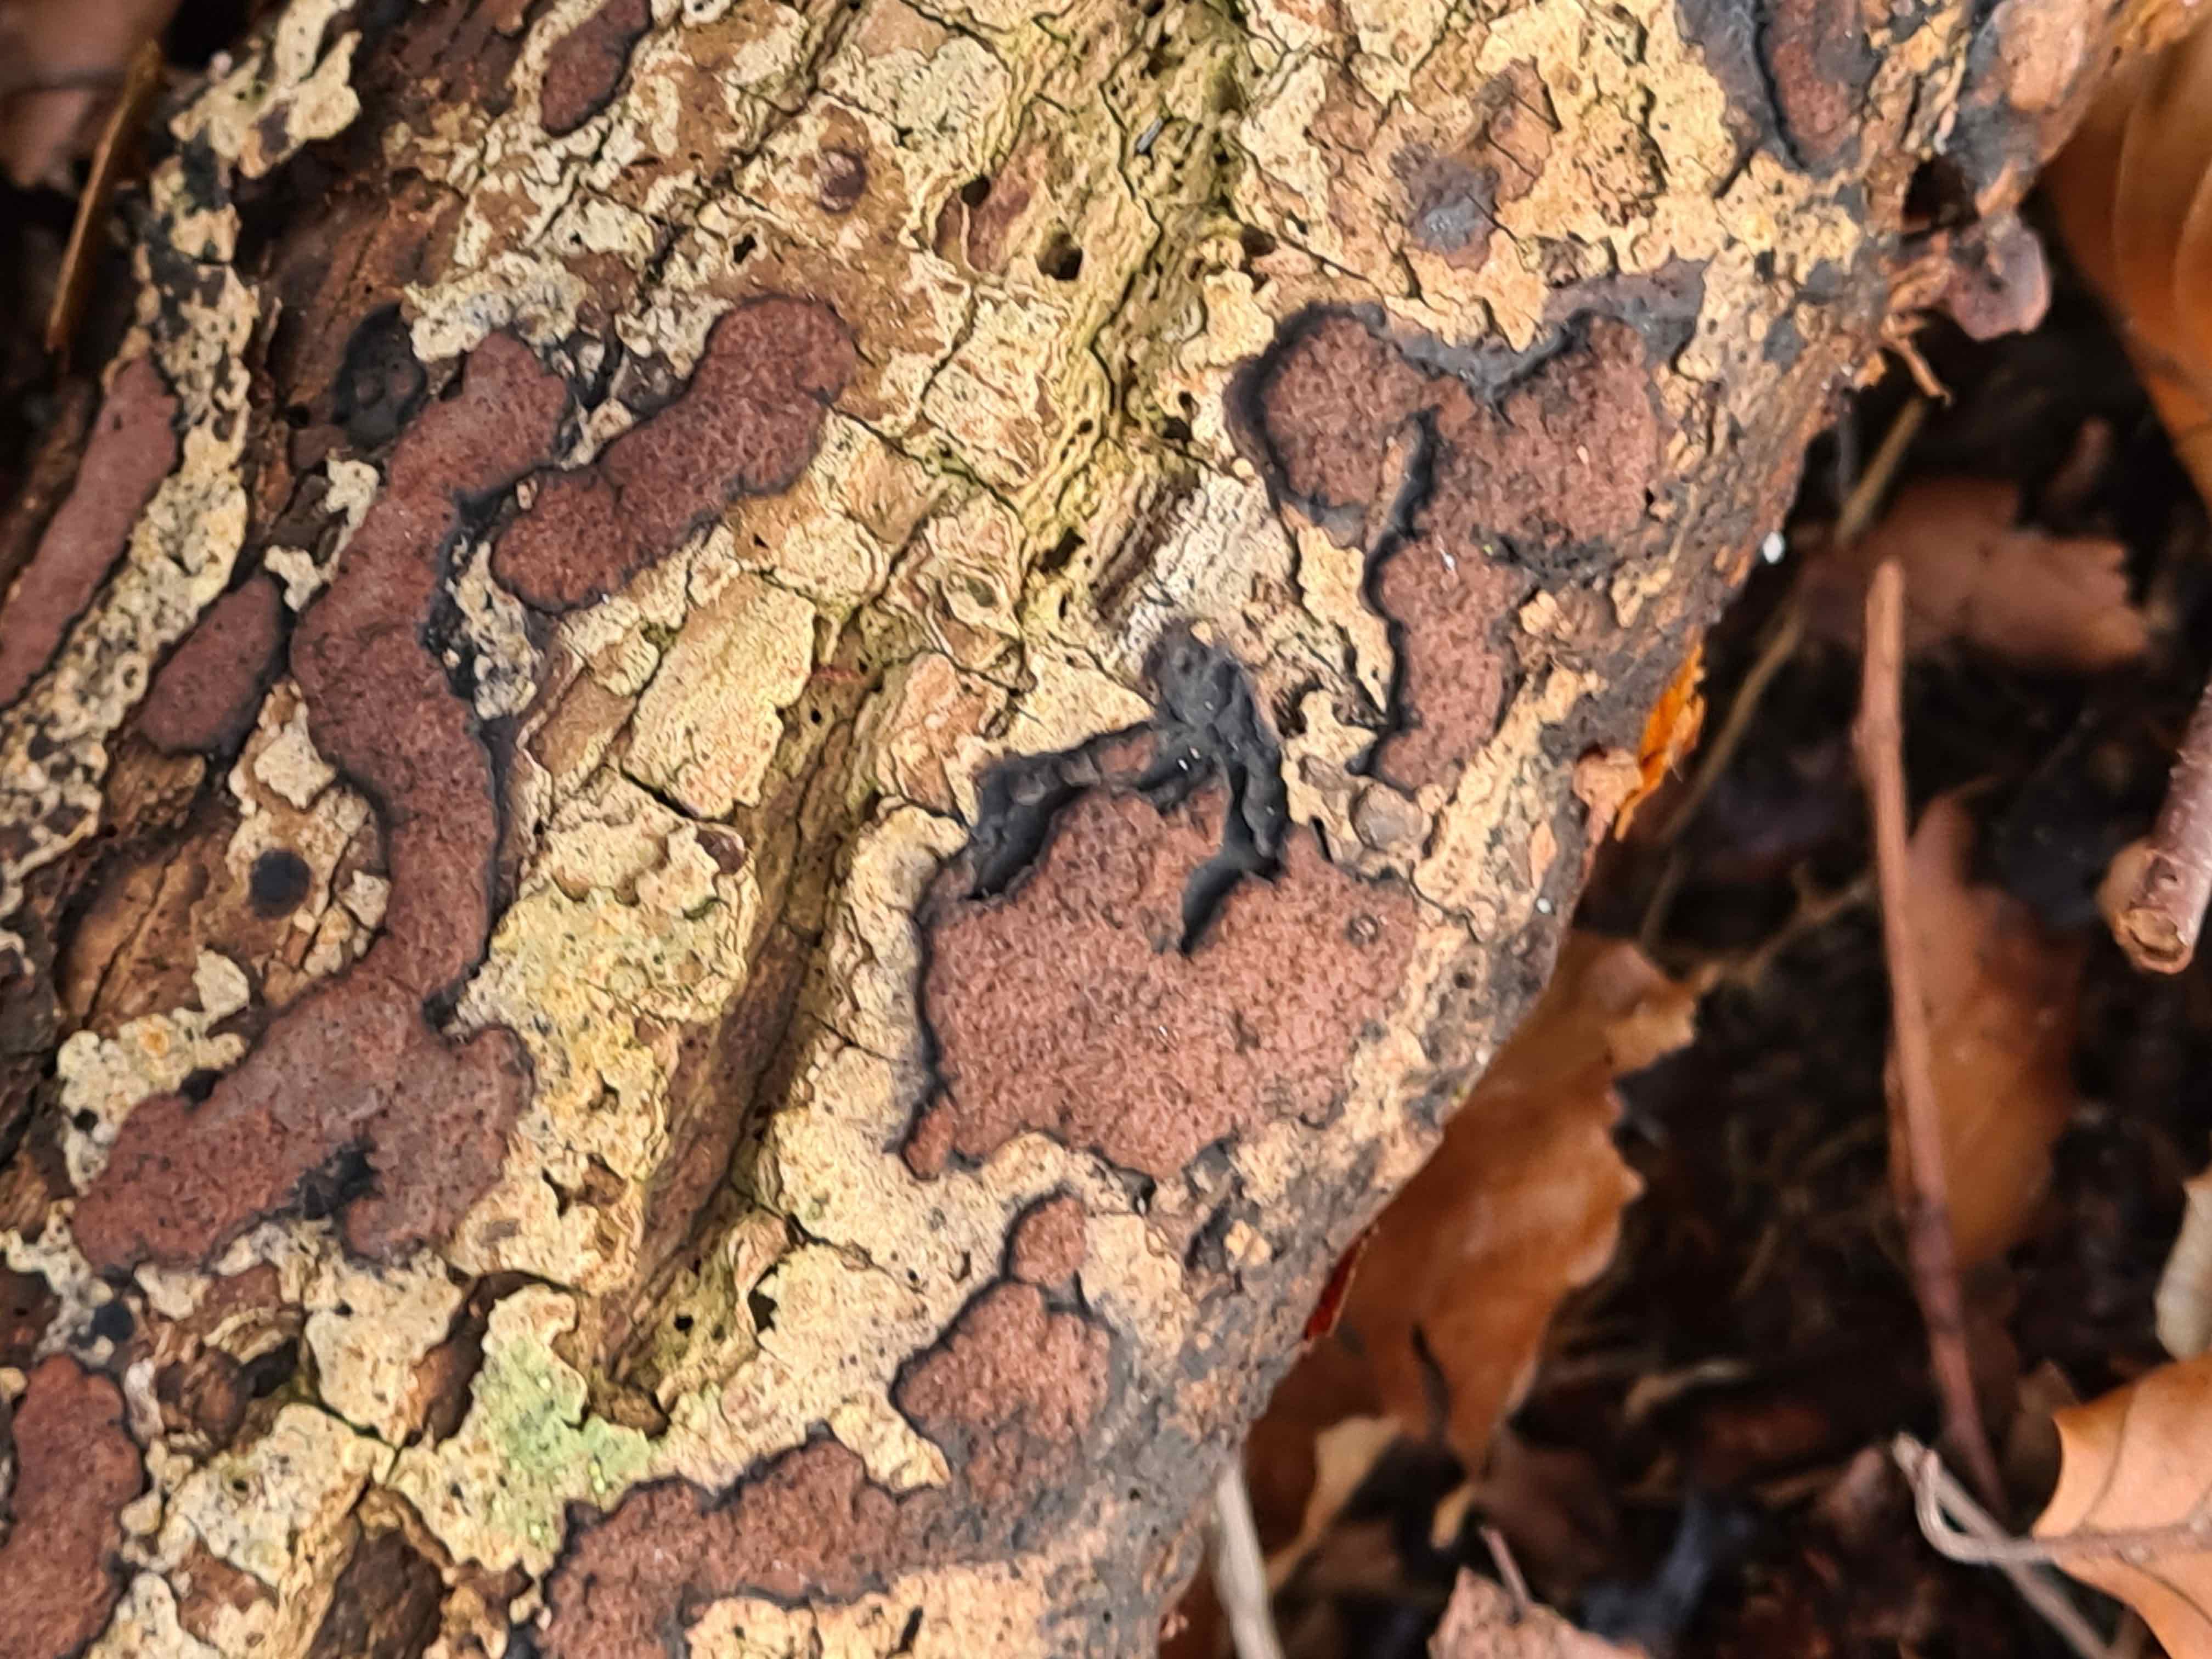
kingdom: Fungi
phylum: Ascomycota
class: Sordariomycetes
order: Xylariales
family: Hypoxylaceae
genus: Hypoxylon
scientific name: Hypoxylon petriniae
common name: nedsænket kulbær
